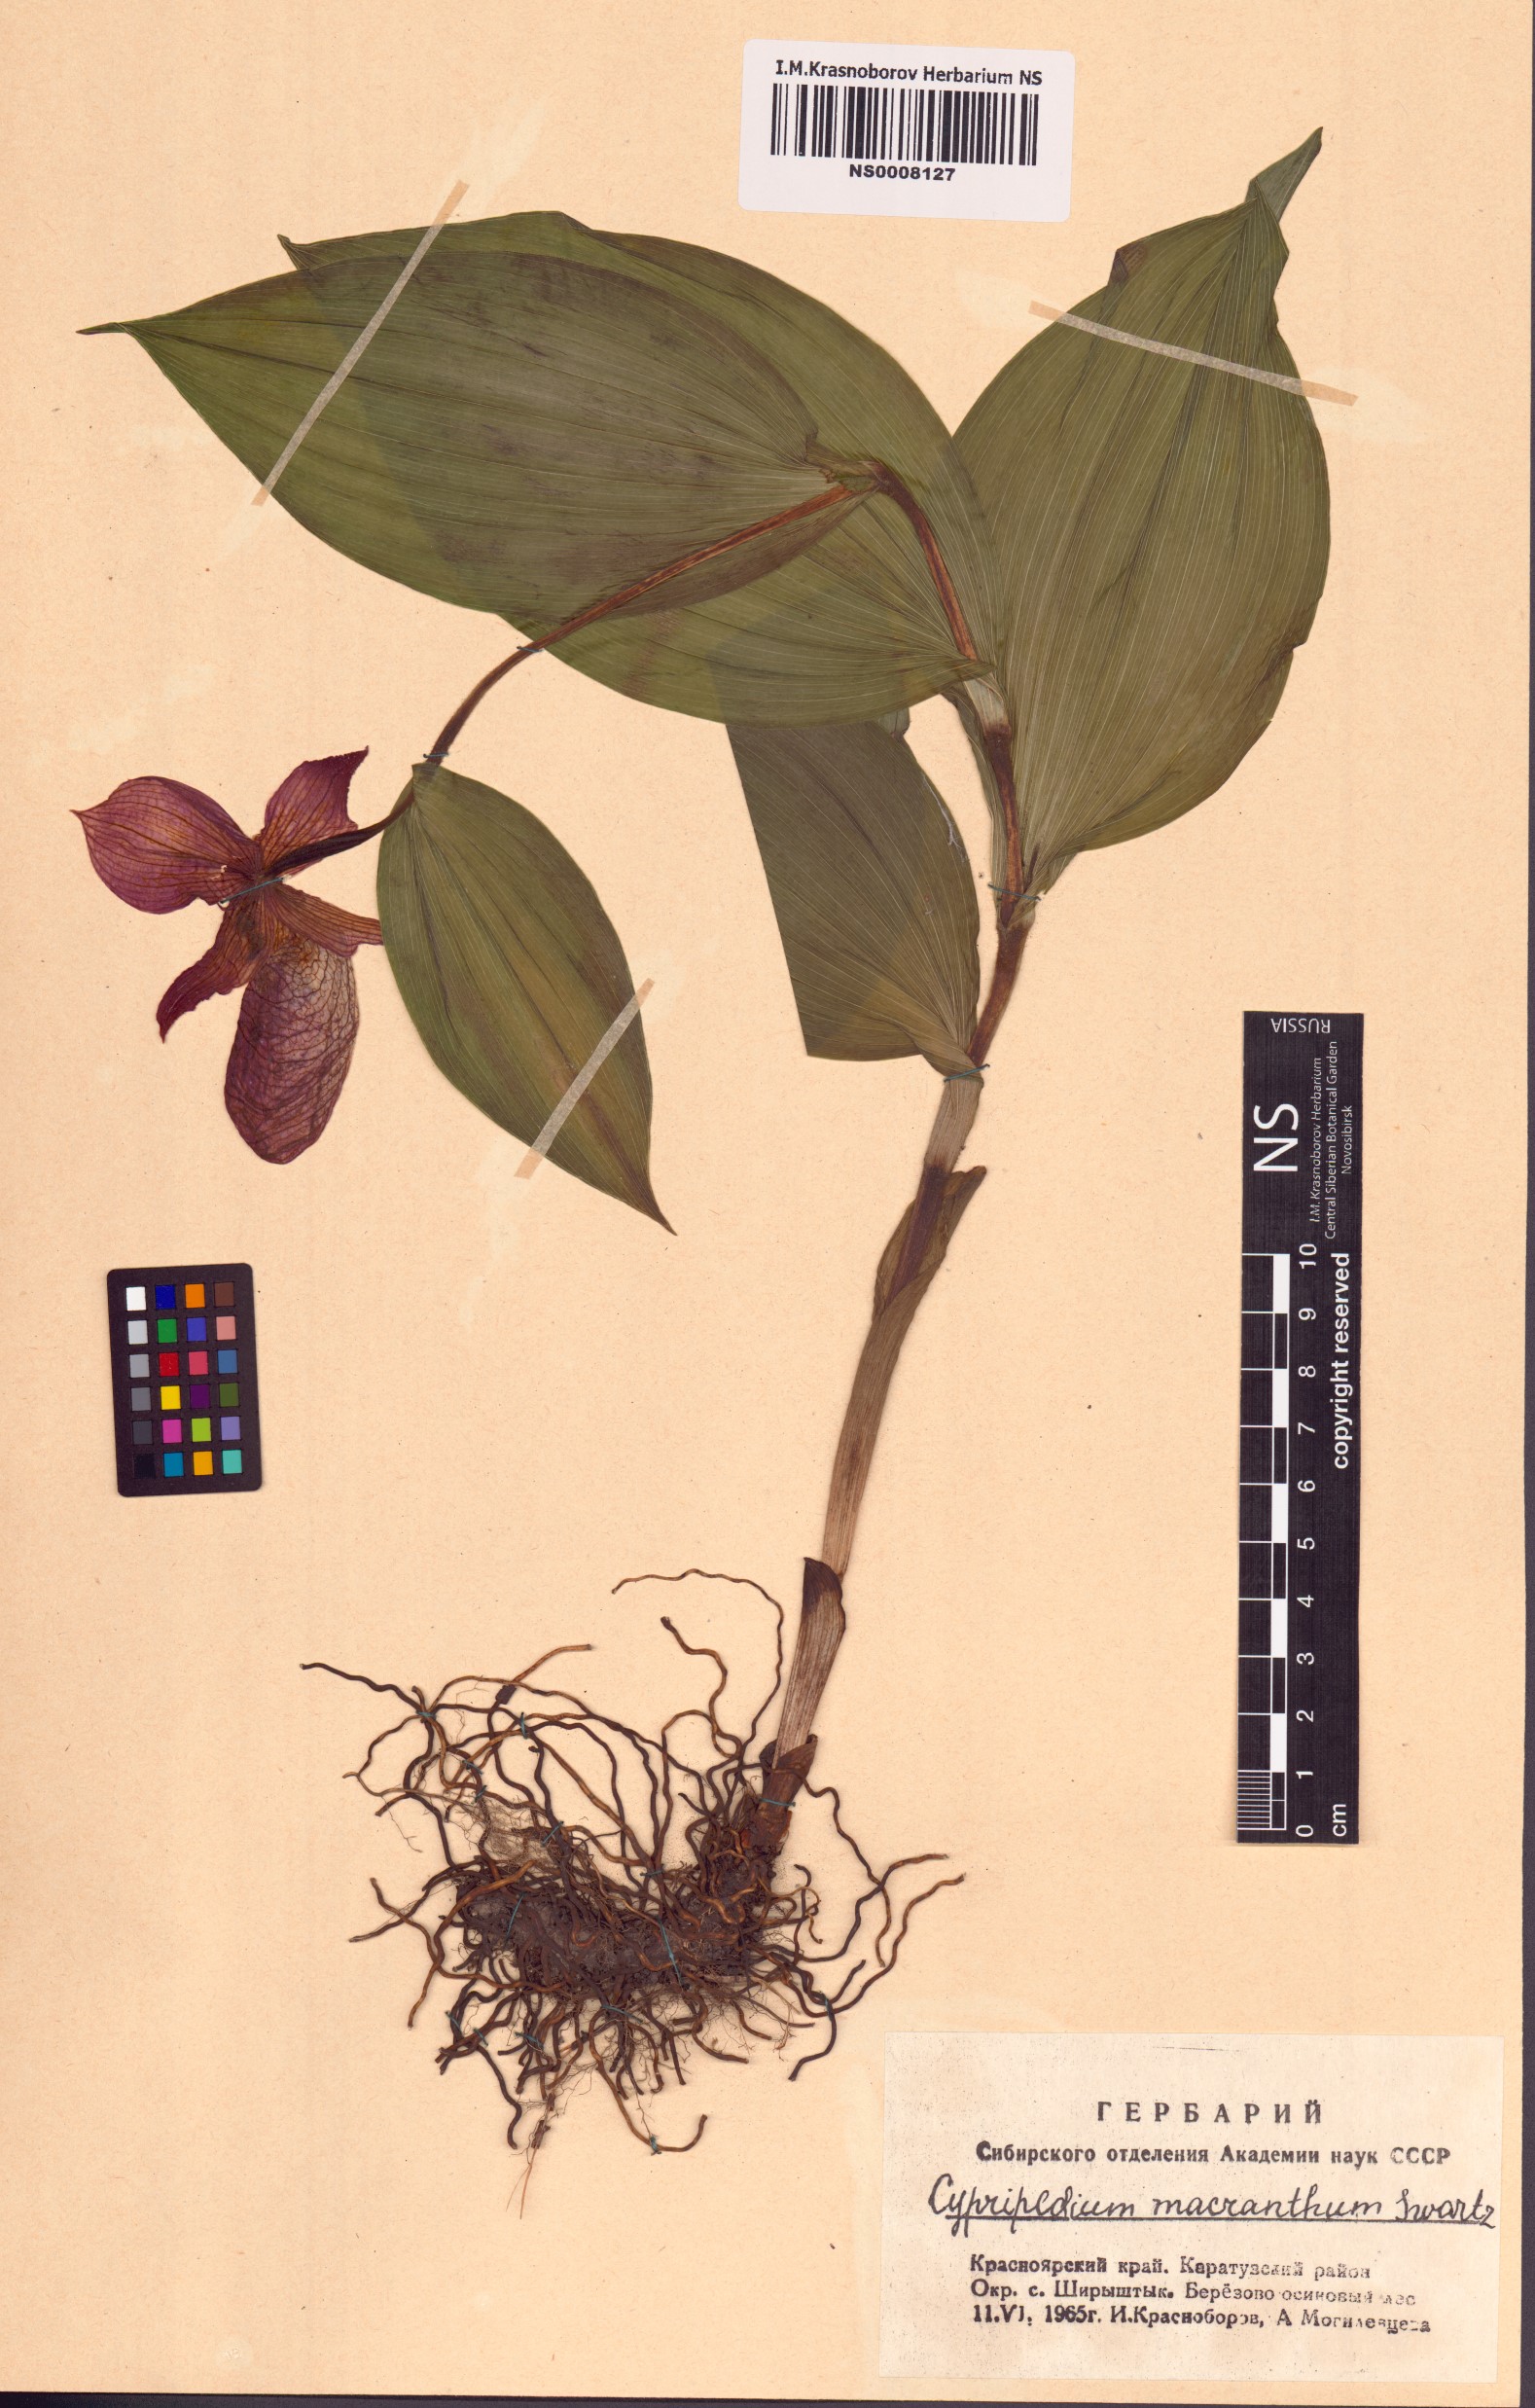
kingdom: Plantae
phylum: Tracheophyta
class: Liliopsida
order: Asparagales
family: Orchidaceae
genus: Cypripedium
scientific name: Cypripedium macranthos
